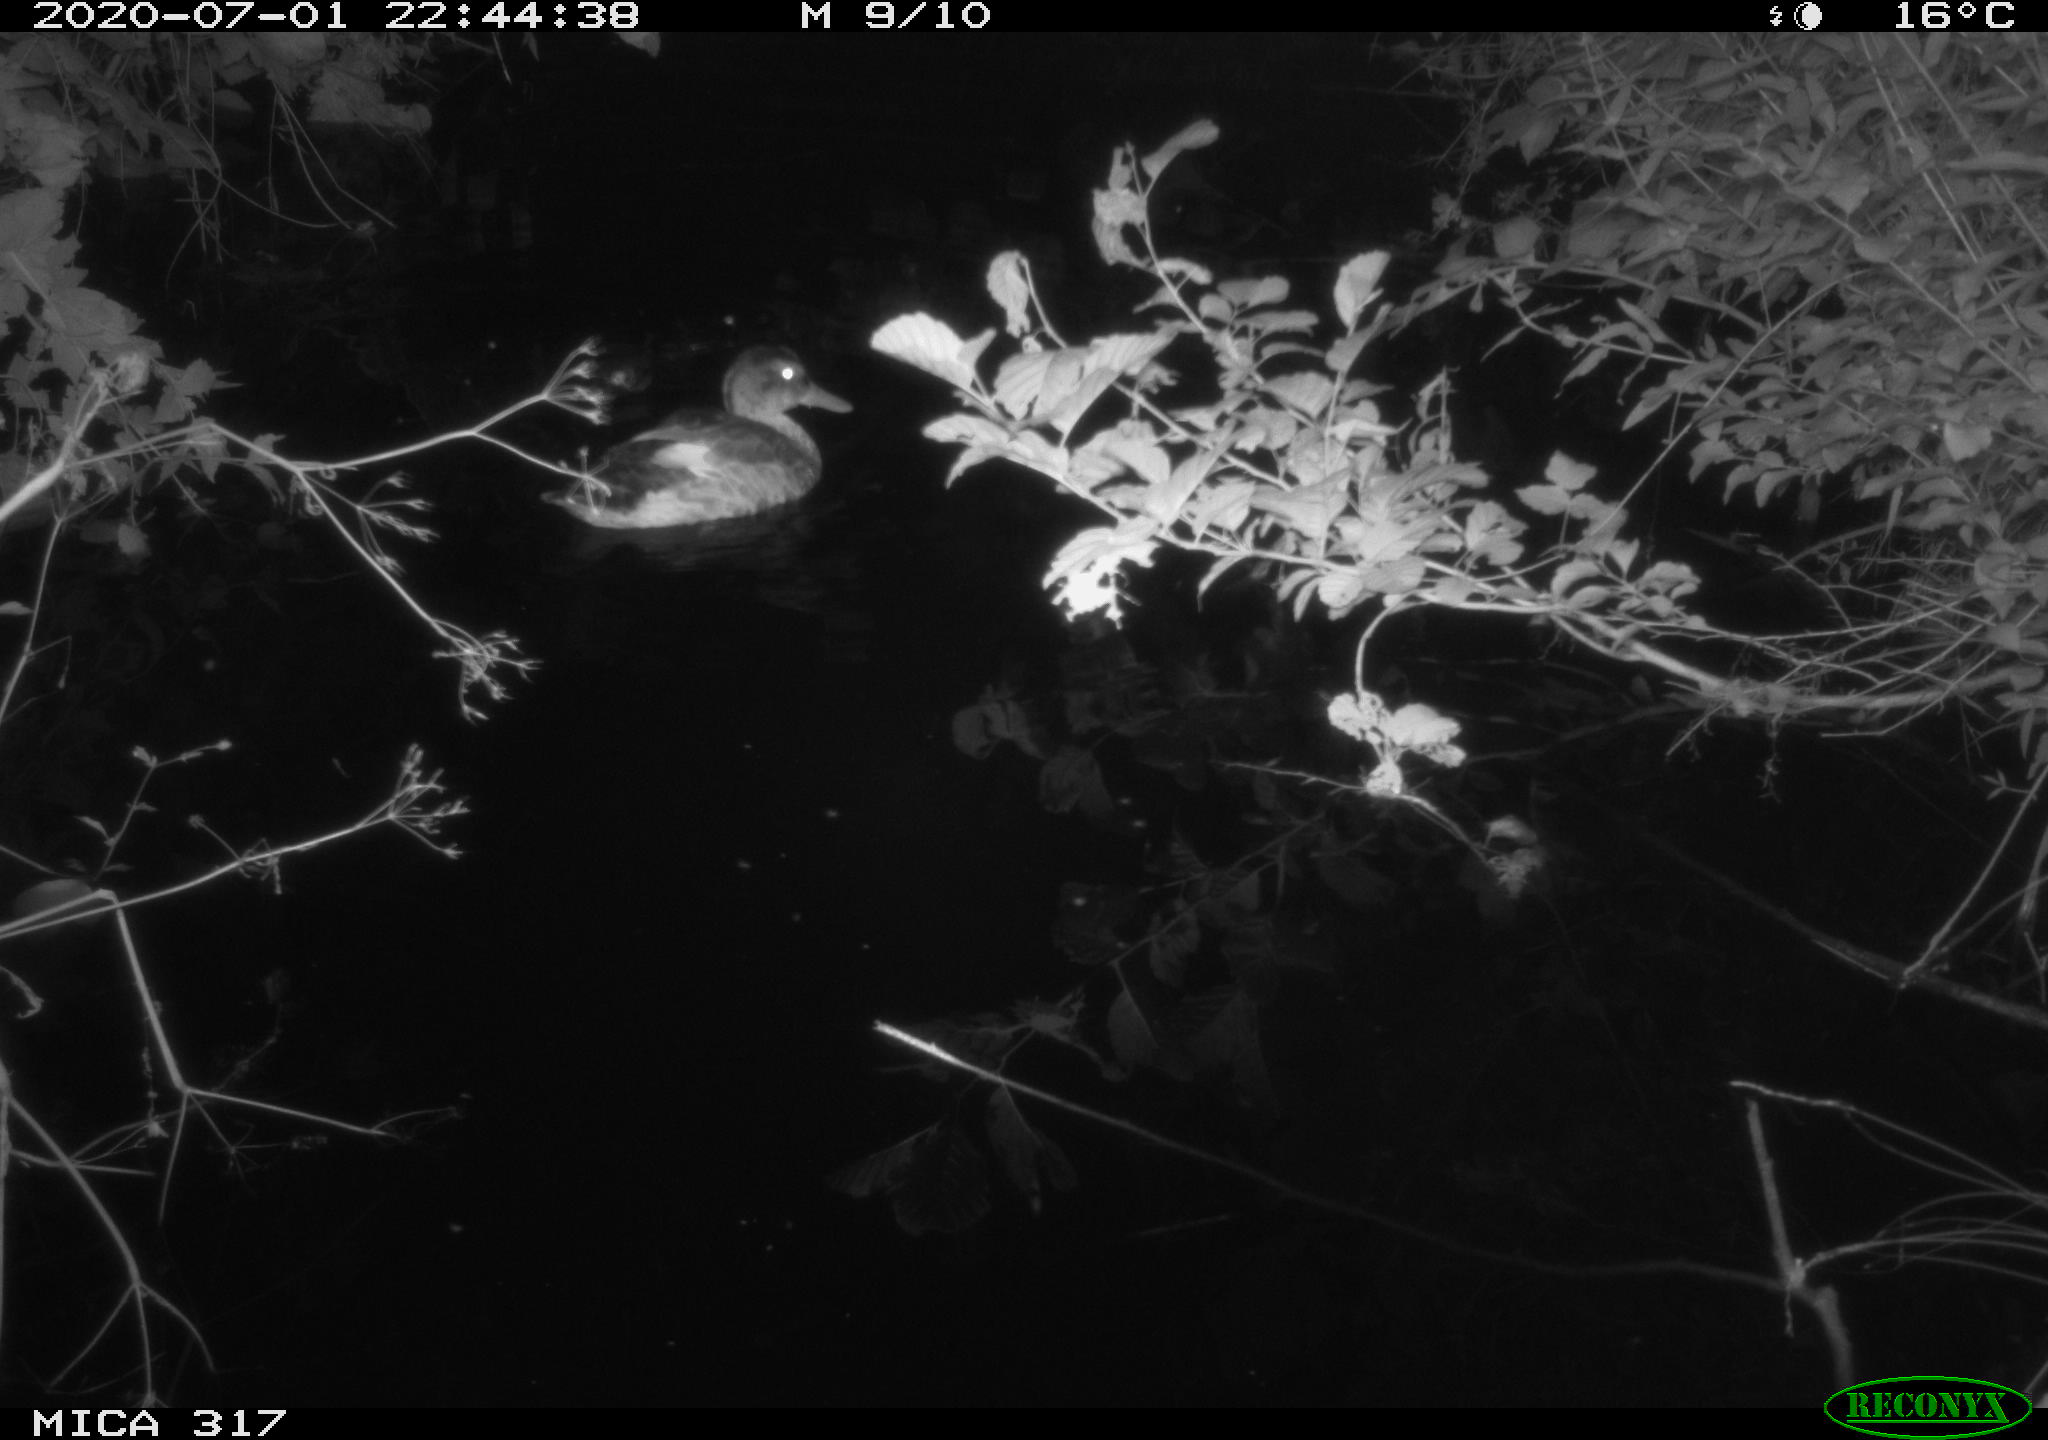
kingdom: Animalia
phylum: Chordata
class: Aves
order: Anseriformes
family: Anatidae
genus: Anas
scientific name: Anas platyrhynchos
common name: Mallard
